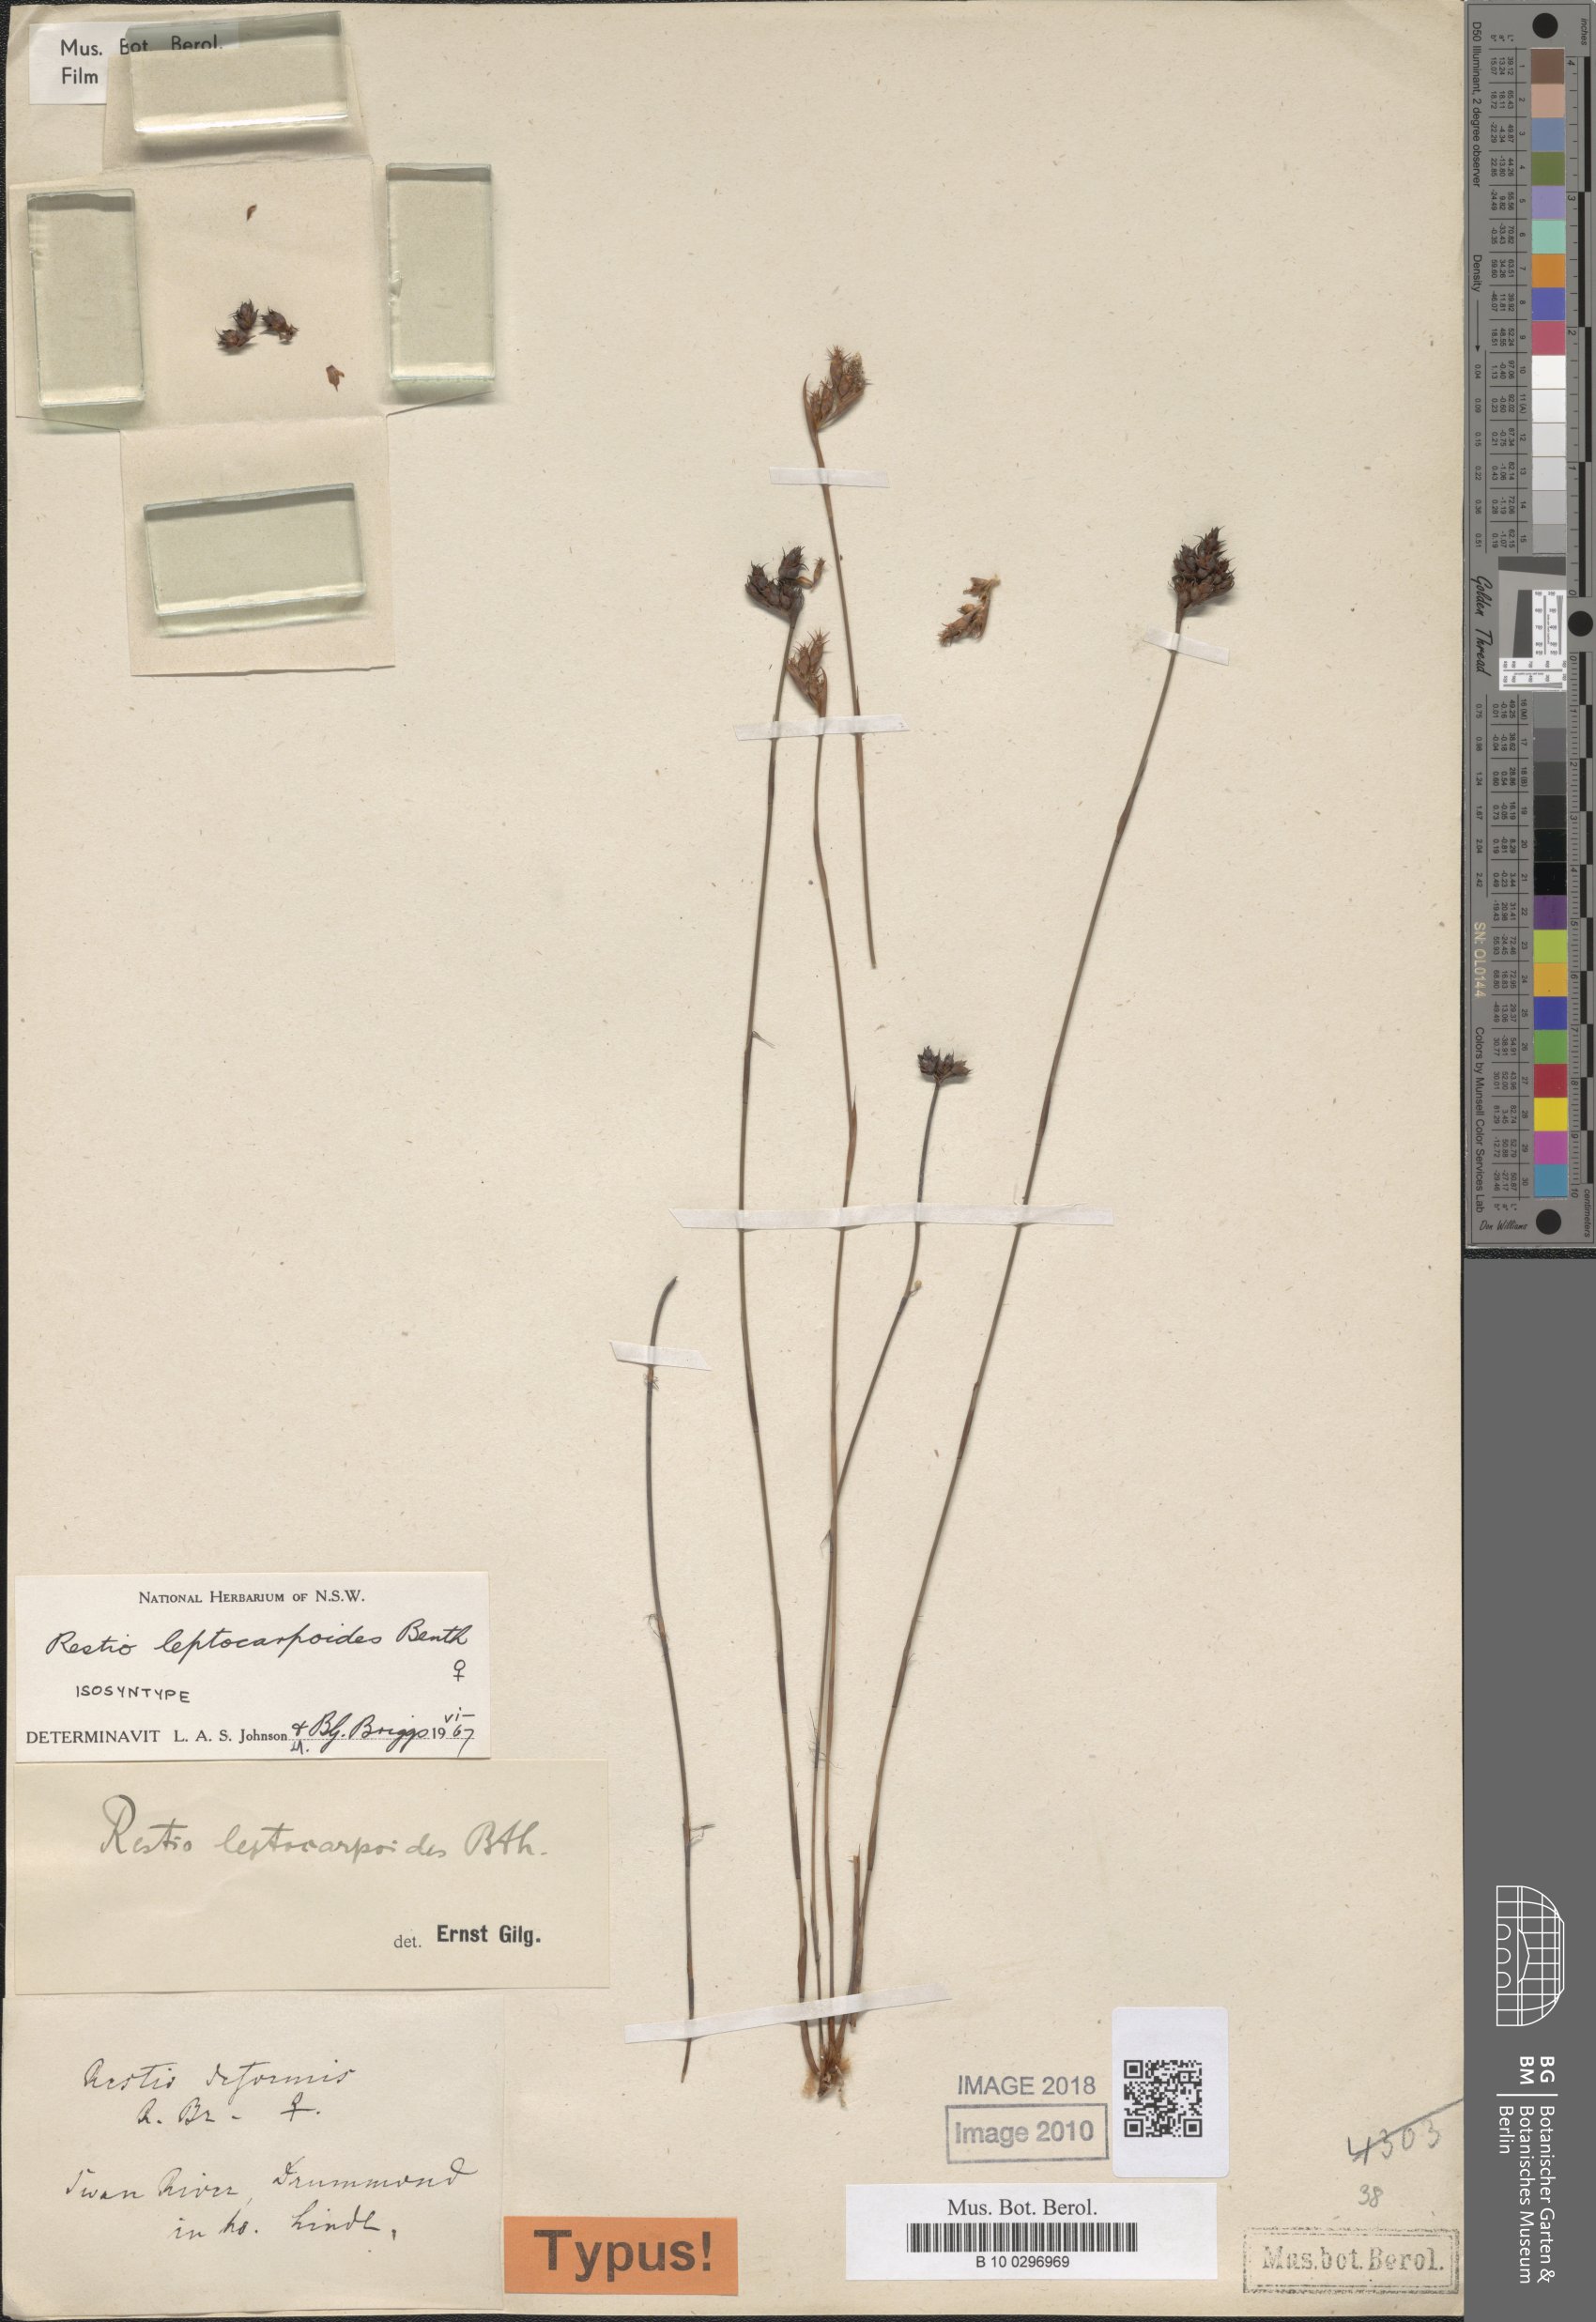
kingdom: Plantae
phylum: Tracheophyta
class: Liliopsida
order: Poales
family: Restionaceae
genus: Cytogonidium
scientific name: Cytogonidium leptocarpoides
